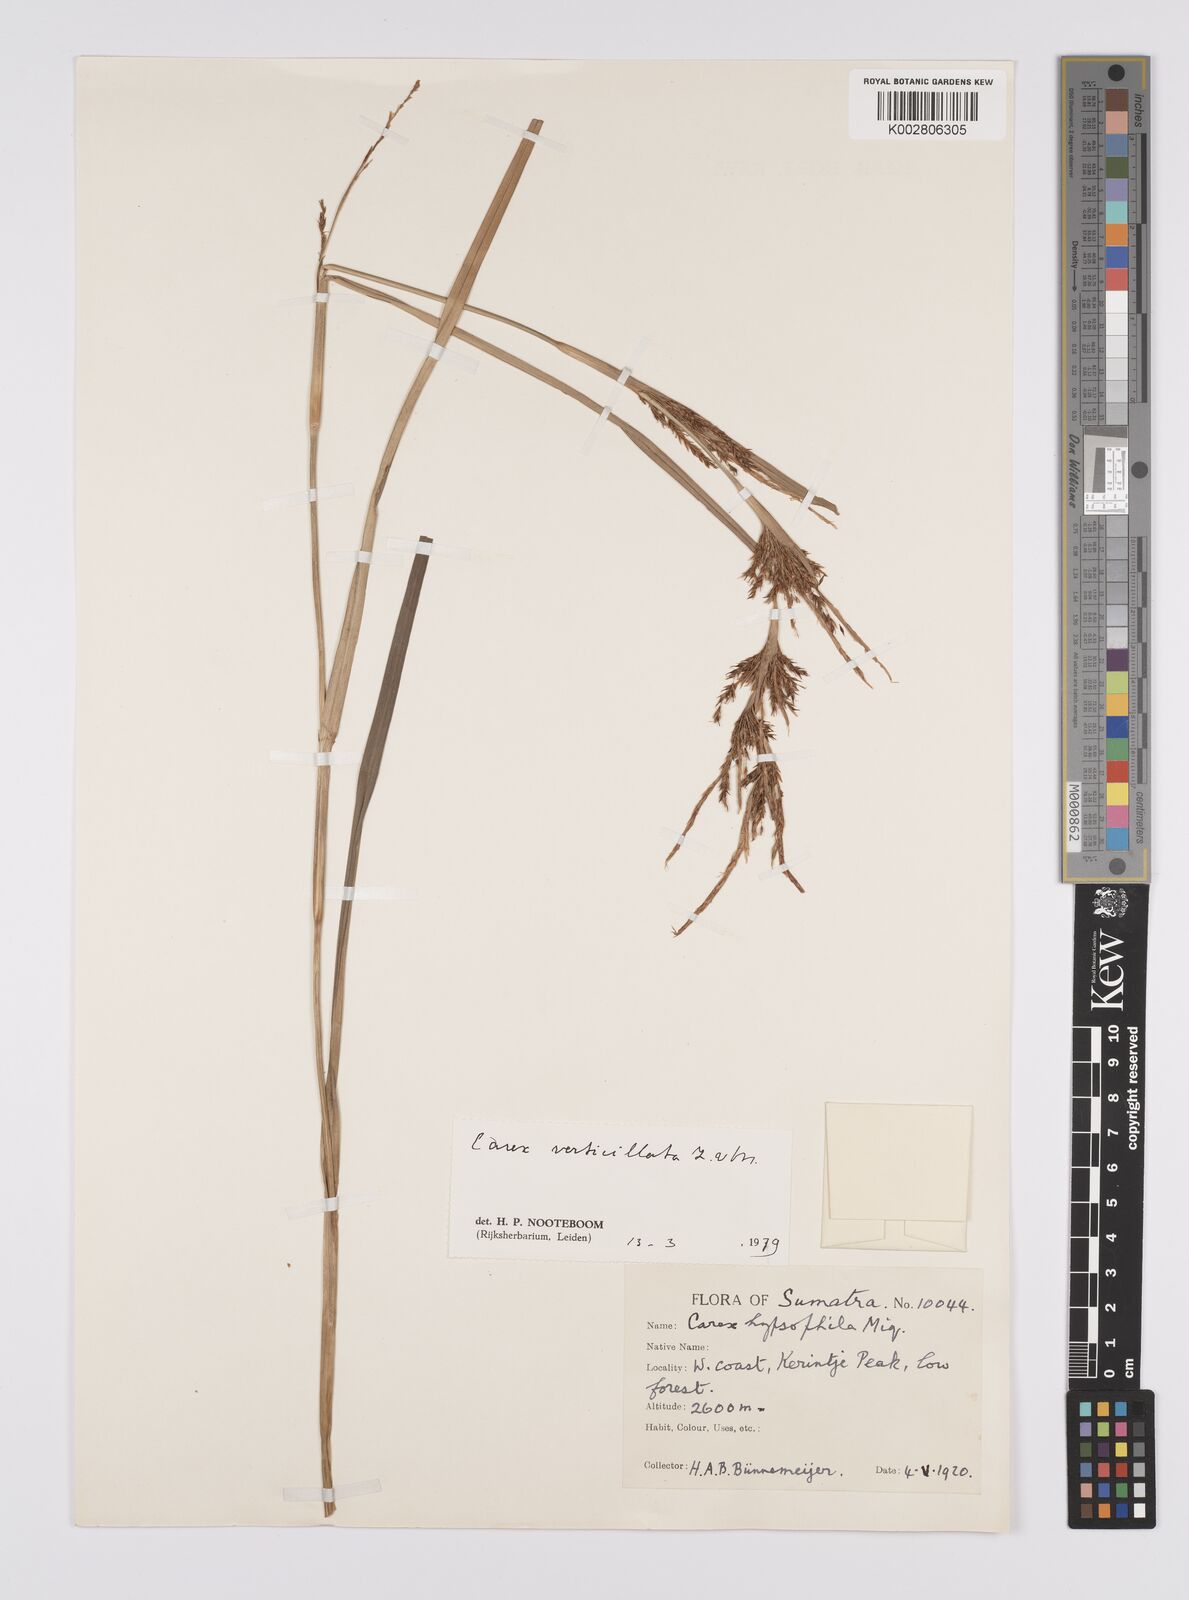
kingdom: Plantae
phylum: Tracheophyta
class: Liliopsida
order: Poales
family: Cyperaceae
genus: Carex
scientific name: Carex verticillata
